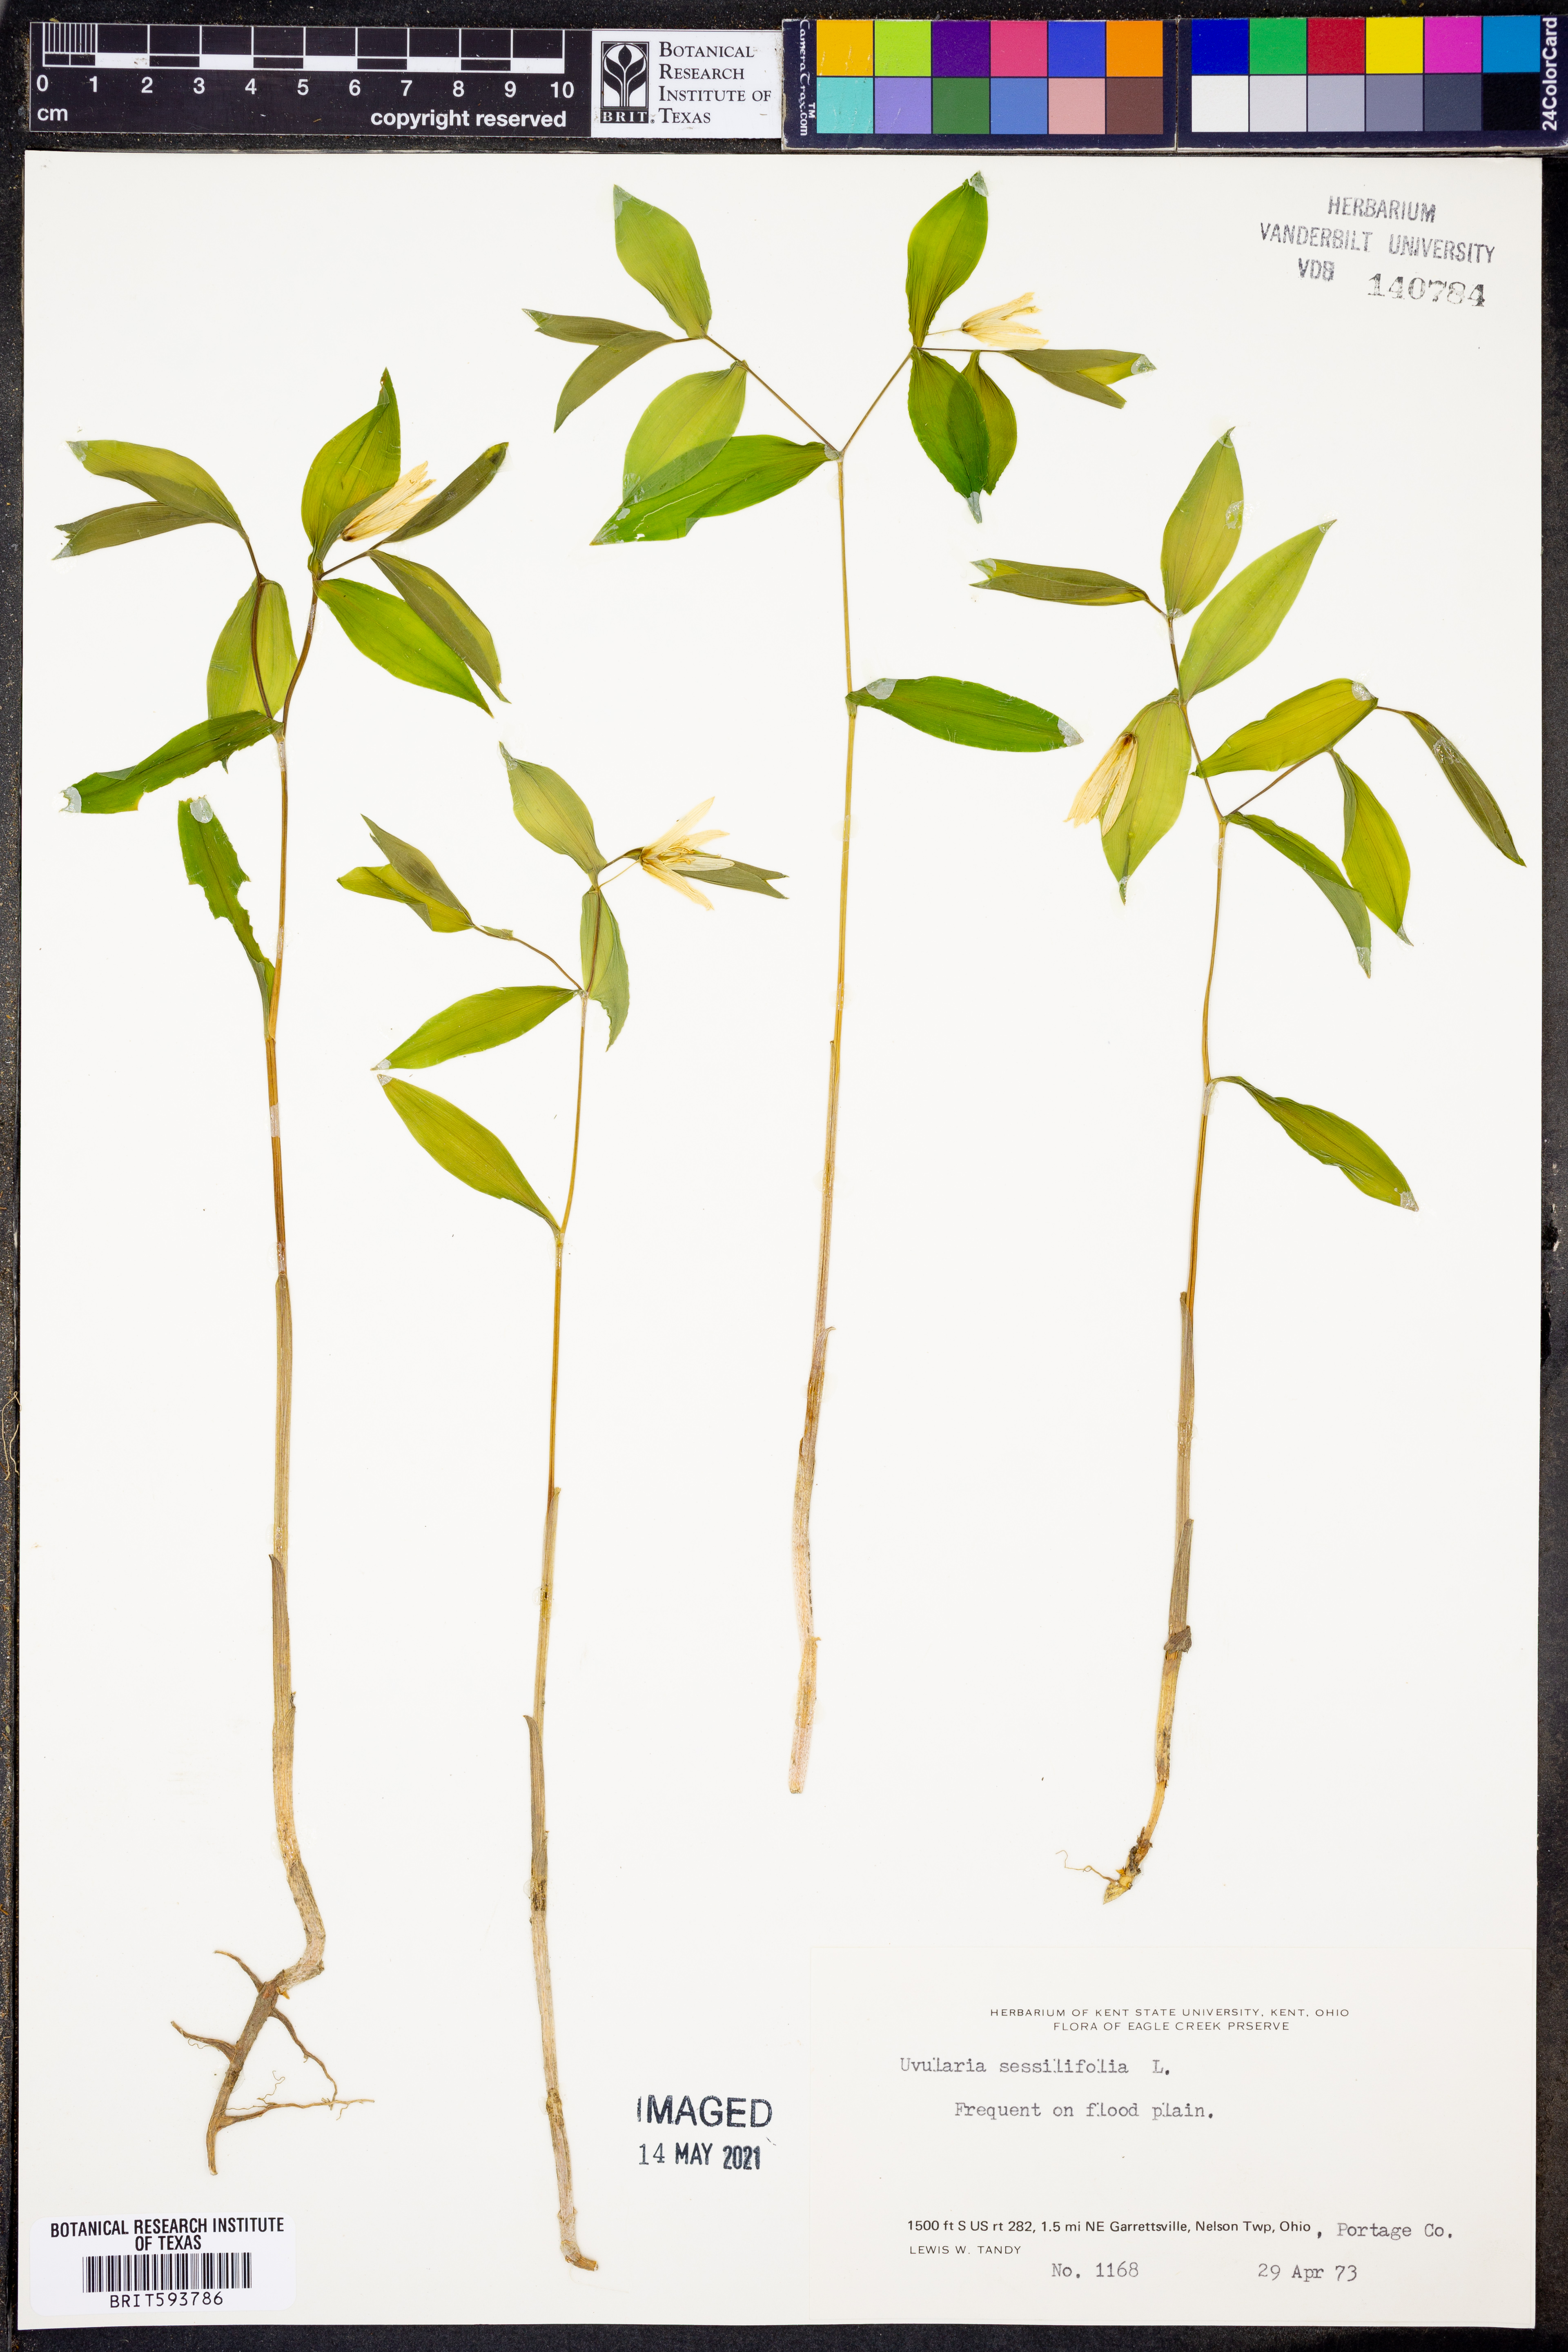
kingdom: Plantae
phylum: Tracheophyta
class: Liliopsida
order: Liliales
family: Colchicaceae
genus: Uvularia
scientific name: Uvularia sessilifolia
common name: Straw-lily
